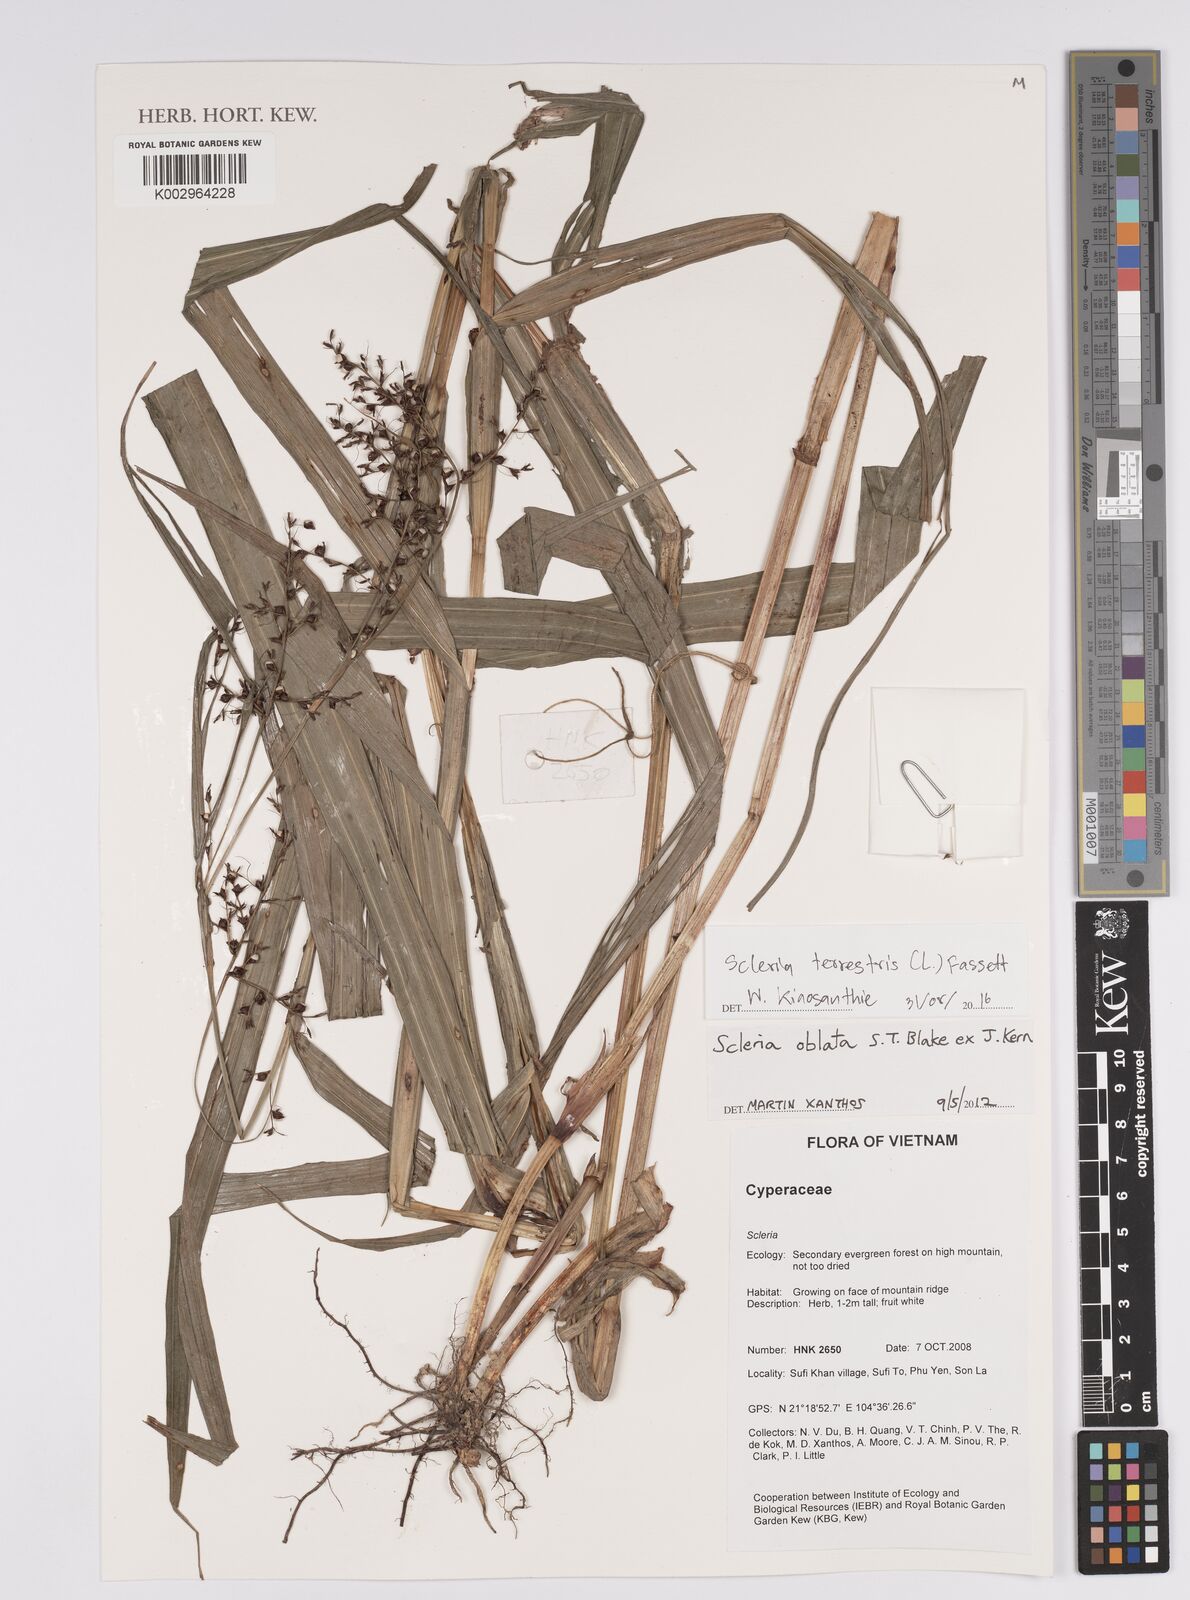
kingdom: Plantae
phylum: Tracheophyta
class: Liliopsida
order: Poales
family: Cyperaceae
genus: Scleria
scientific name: Scleria terrestris
